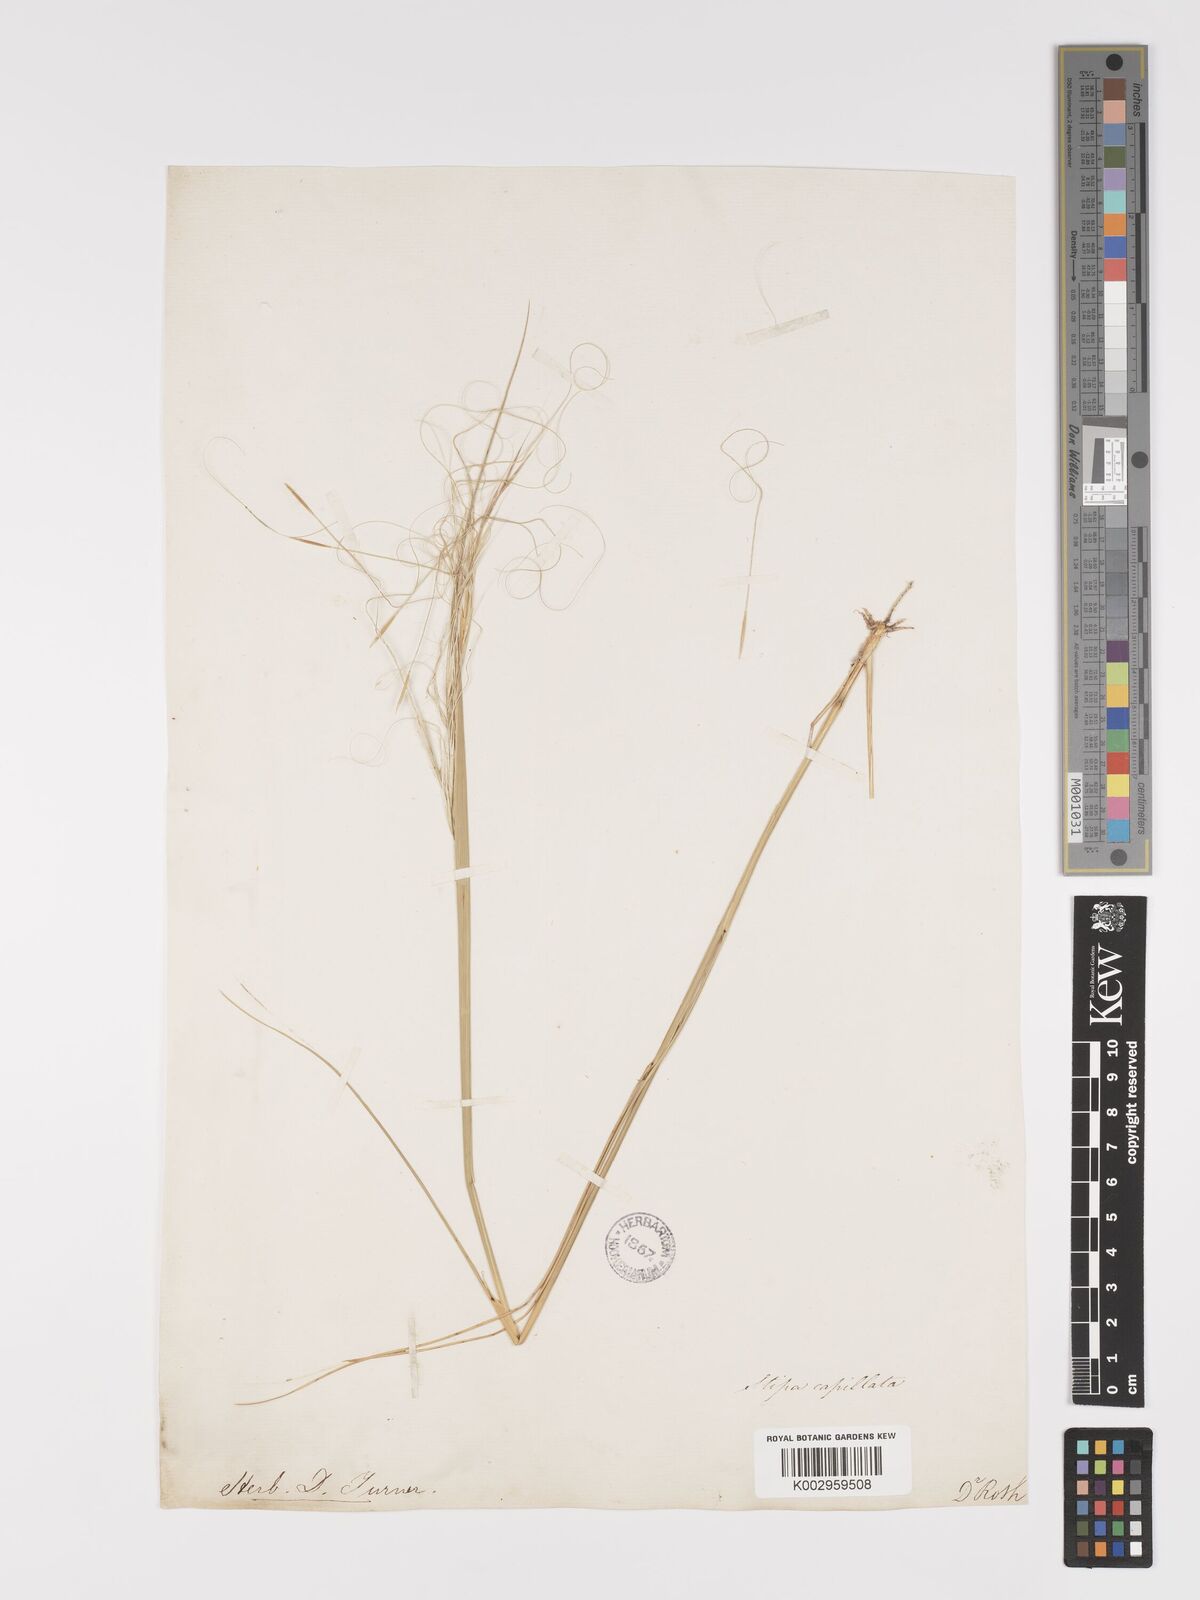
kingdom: Plantae
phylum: Tracheophyta
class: Liliopsida
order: Poales
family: Poaceae
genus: Stipa
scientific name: Stipa capillata
